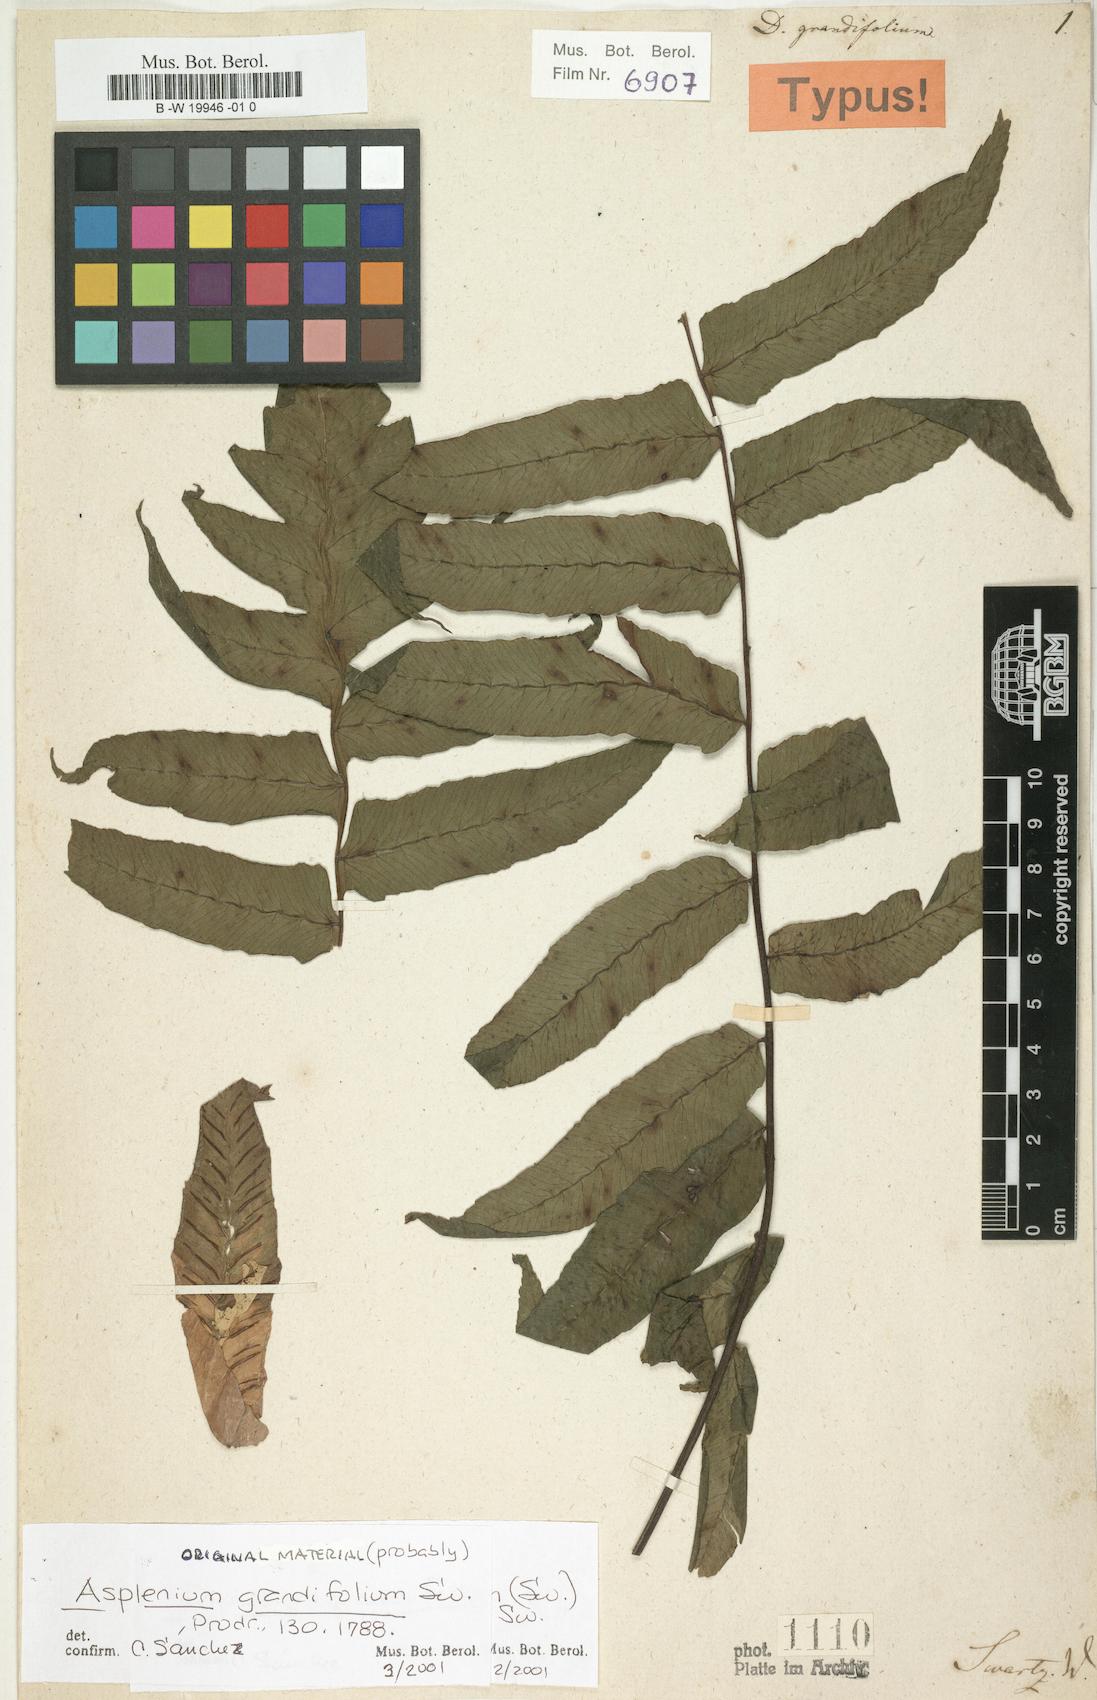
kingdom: Plantae
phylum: Tracheophyta
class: Polypodiopsida
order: Polypodiales
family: Athyriaceae
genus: Diplazium
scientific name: Diplazium grandifolium
